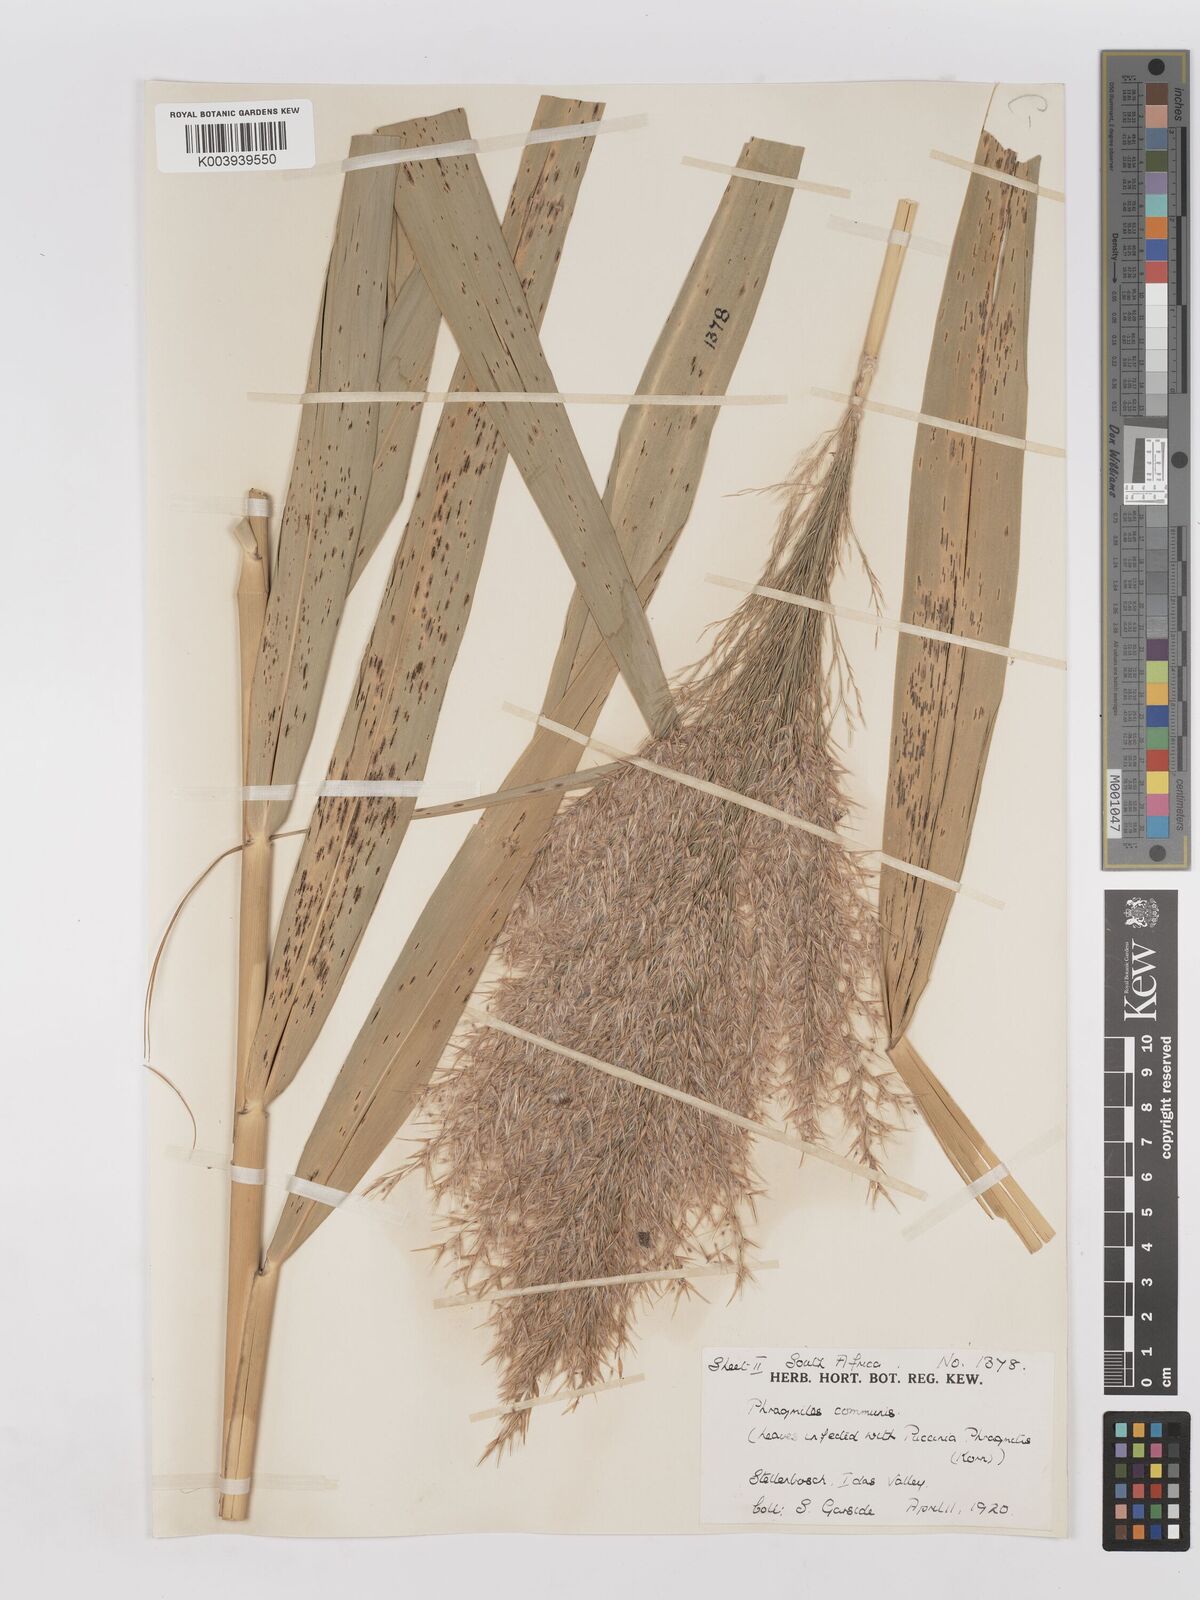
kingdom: Plantae
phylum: Tracheophyta
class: Liliopsida
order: Poales
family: Poaceae
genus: Phragmites
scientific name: Phragmites australis
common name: Common reed
